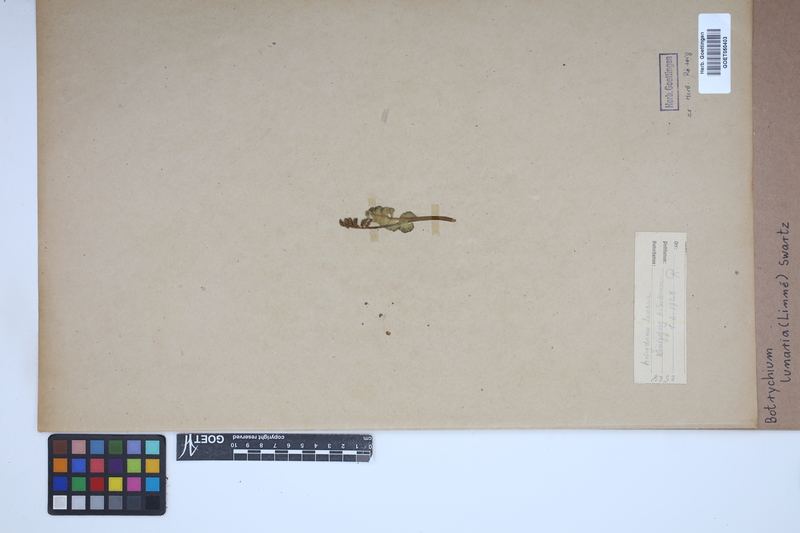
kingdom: Plantae
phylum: Tracheophyta
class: Polypodiopsida
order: Ophioglossales
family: Ophioglossaceae
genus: Botrychium
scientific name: Botrychium lunaria
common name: Moonwort
